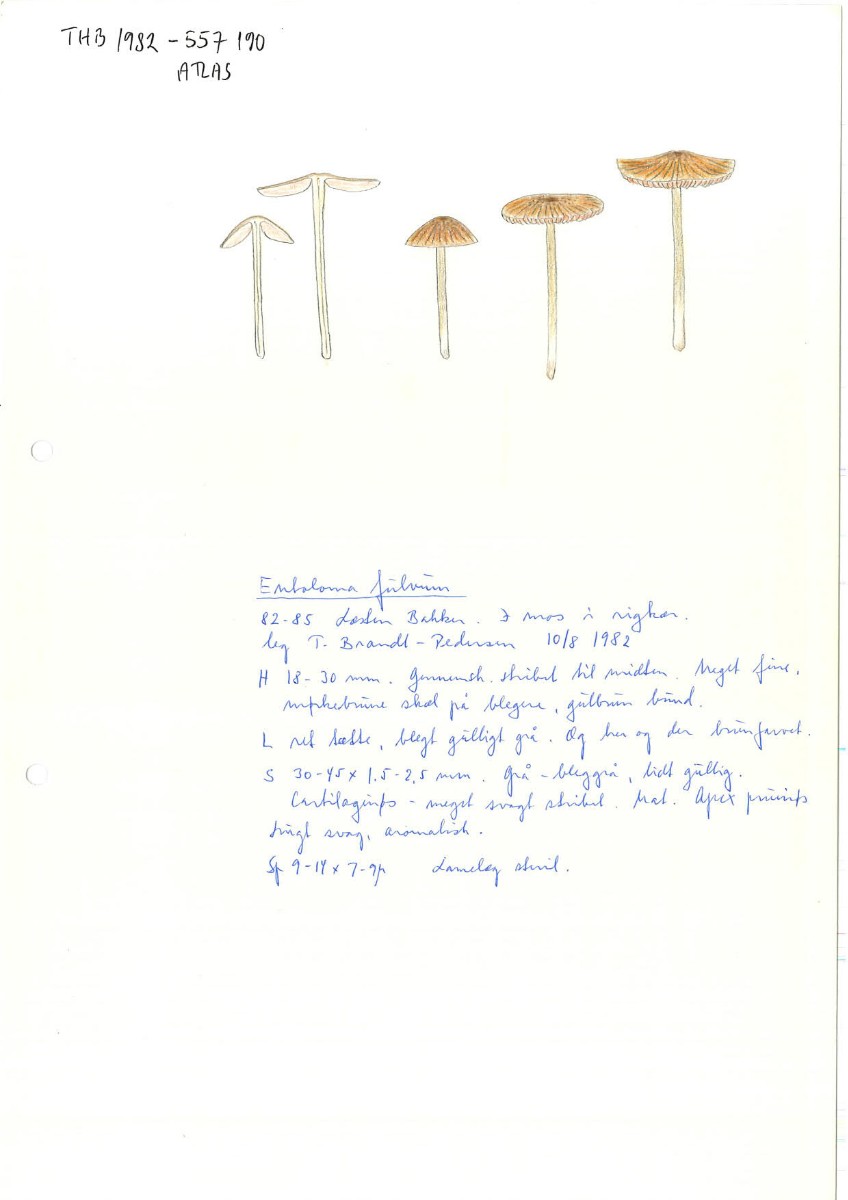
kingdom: Fungi
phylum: Basidiomycota
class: Agaricomycetes
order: Agaricales
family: Entolomataceae
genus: Entoloma
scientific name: Entoloma formosum
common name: brungul rødblad
